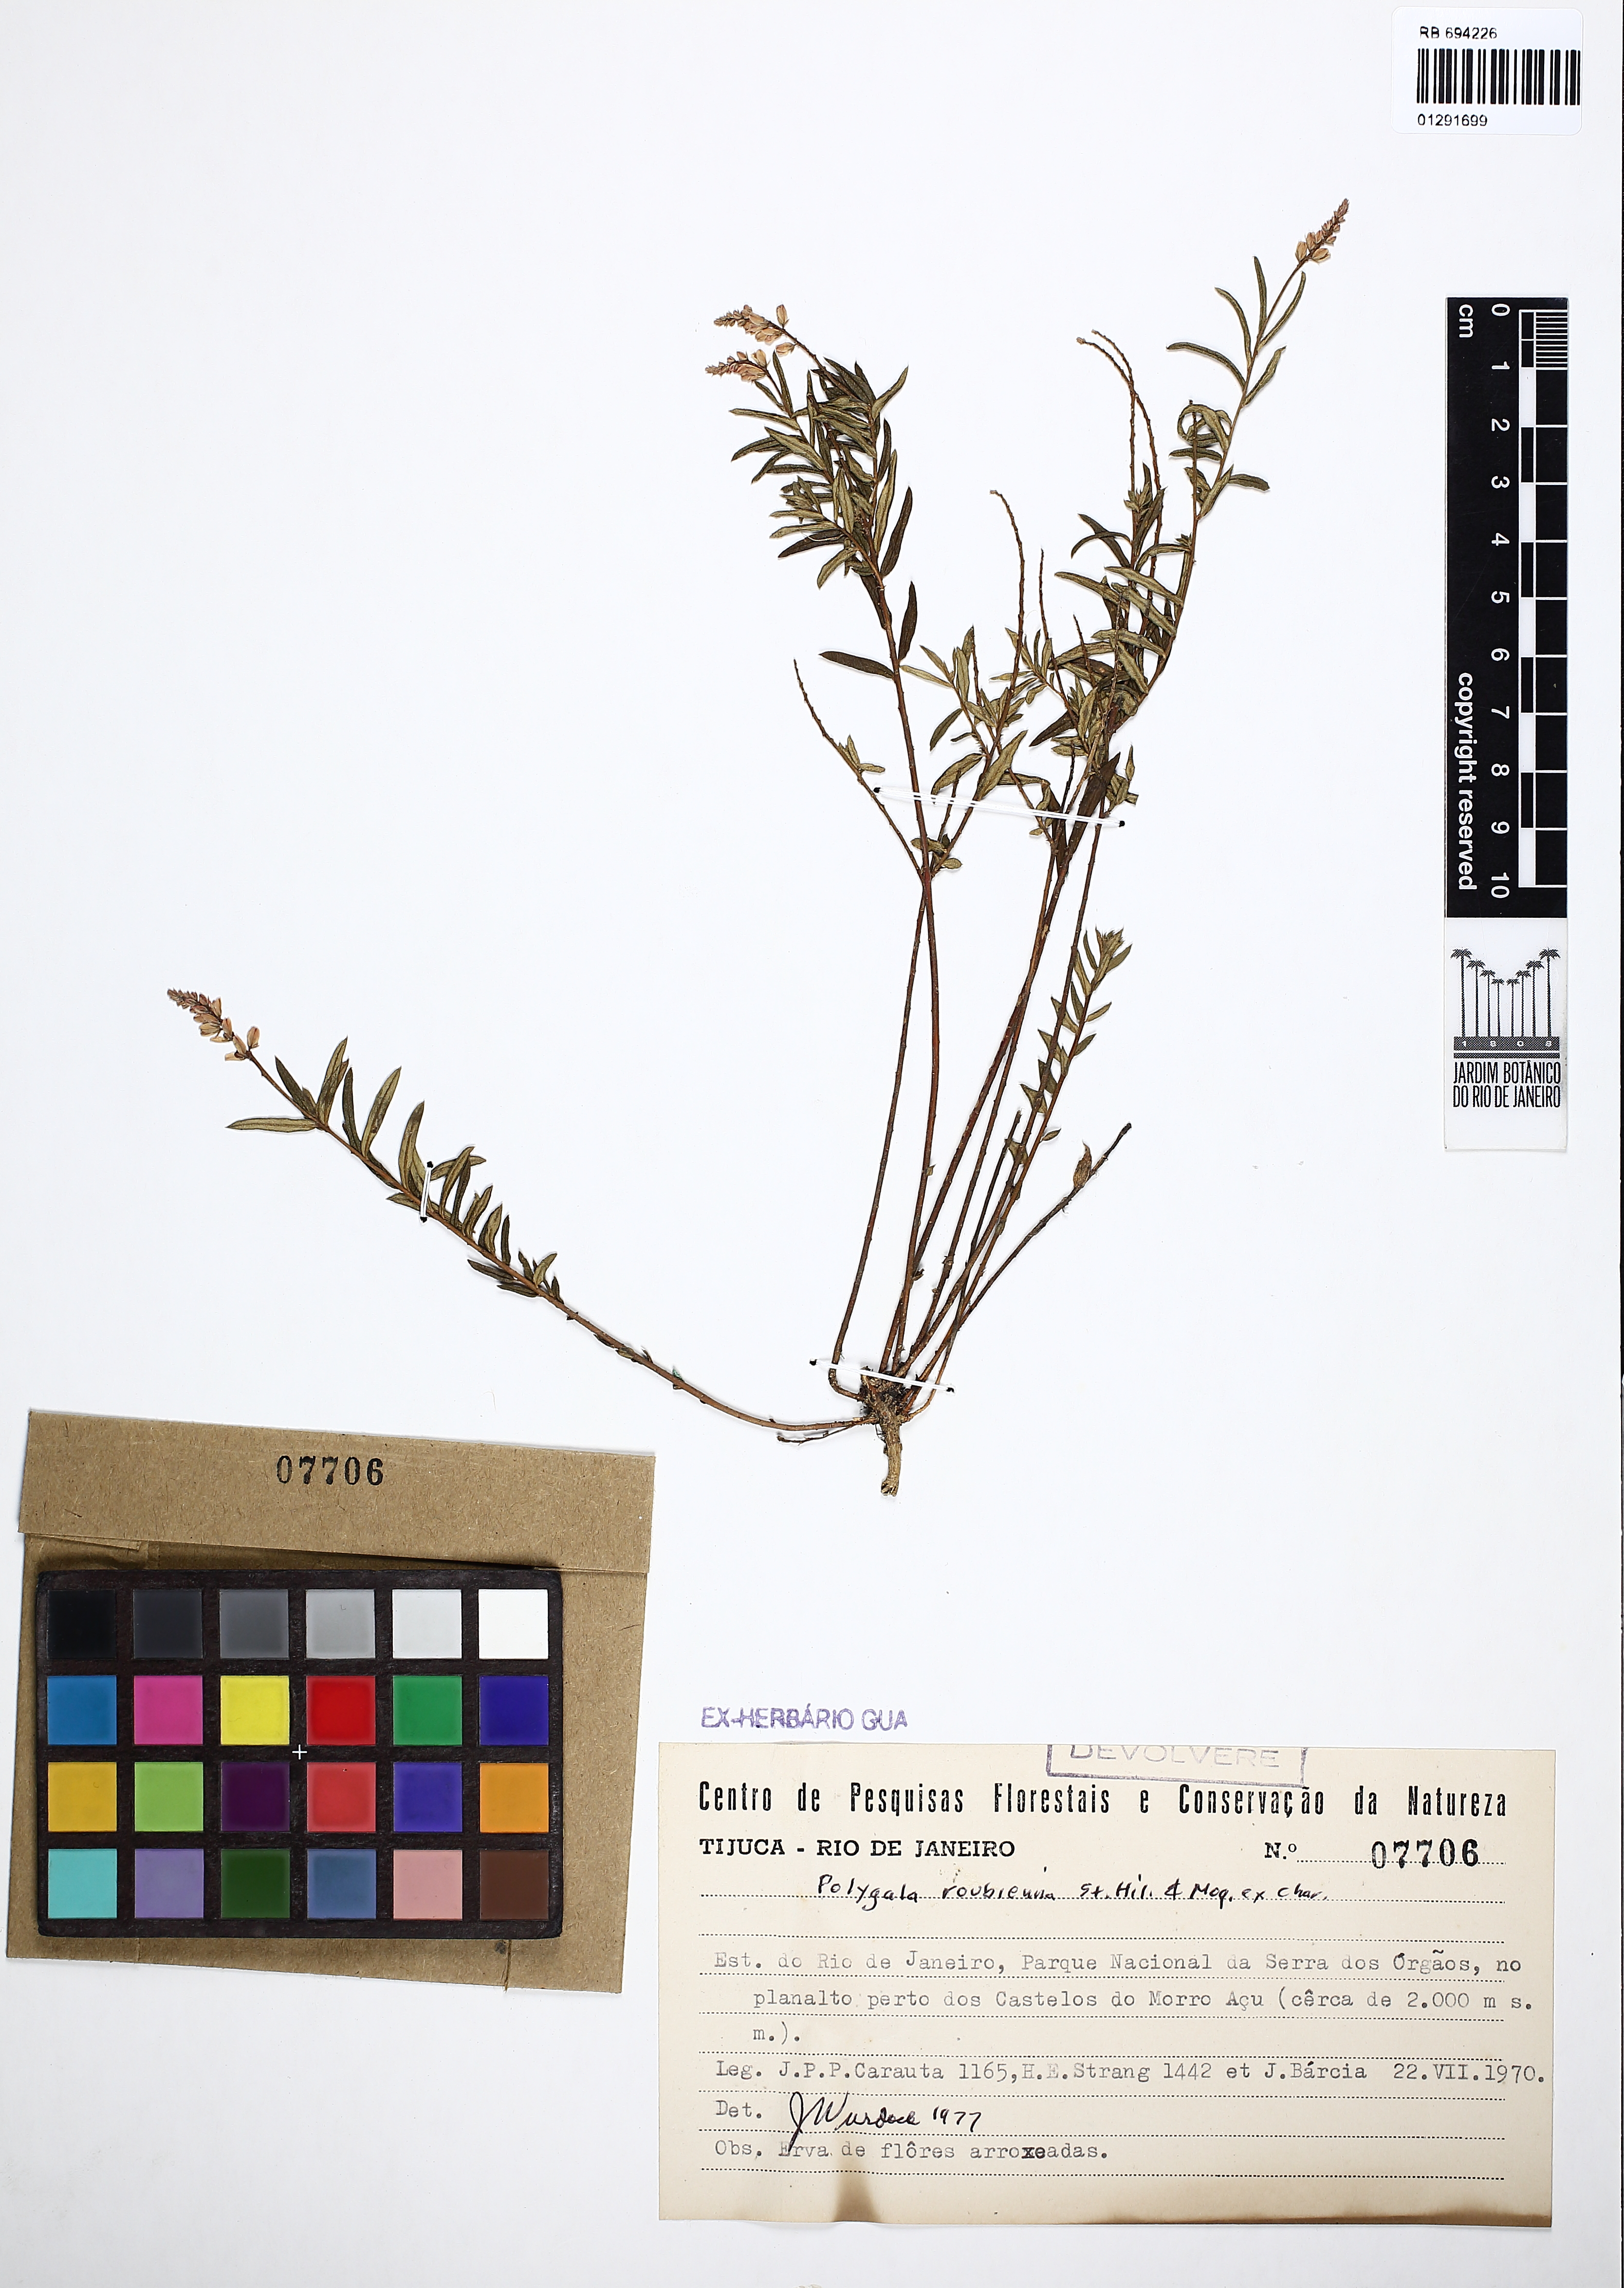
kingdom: Plantae
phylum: Tracheophyta
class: Magnoliopsida
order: Fabales
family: Polygalaceae
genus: Polygala
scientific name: Polygala roubienna
